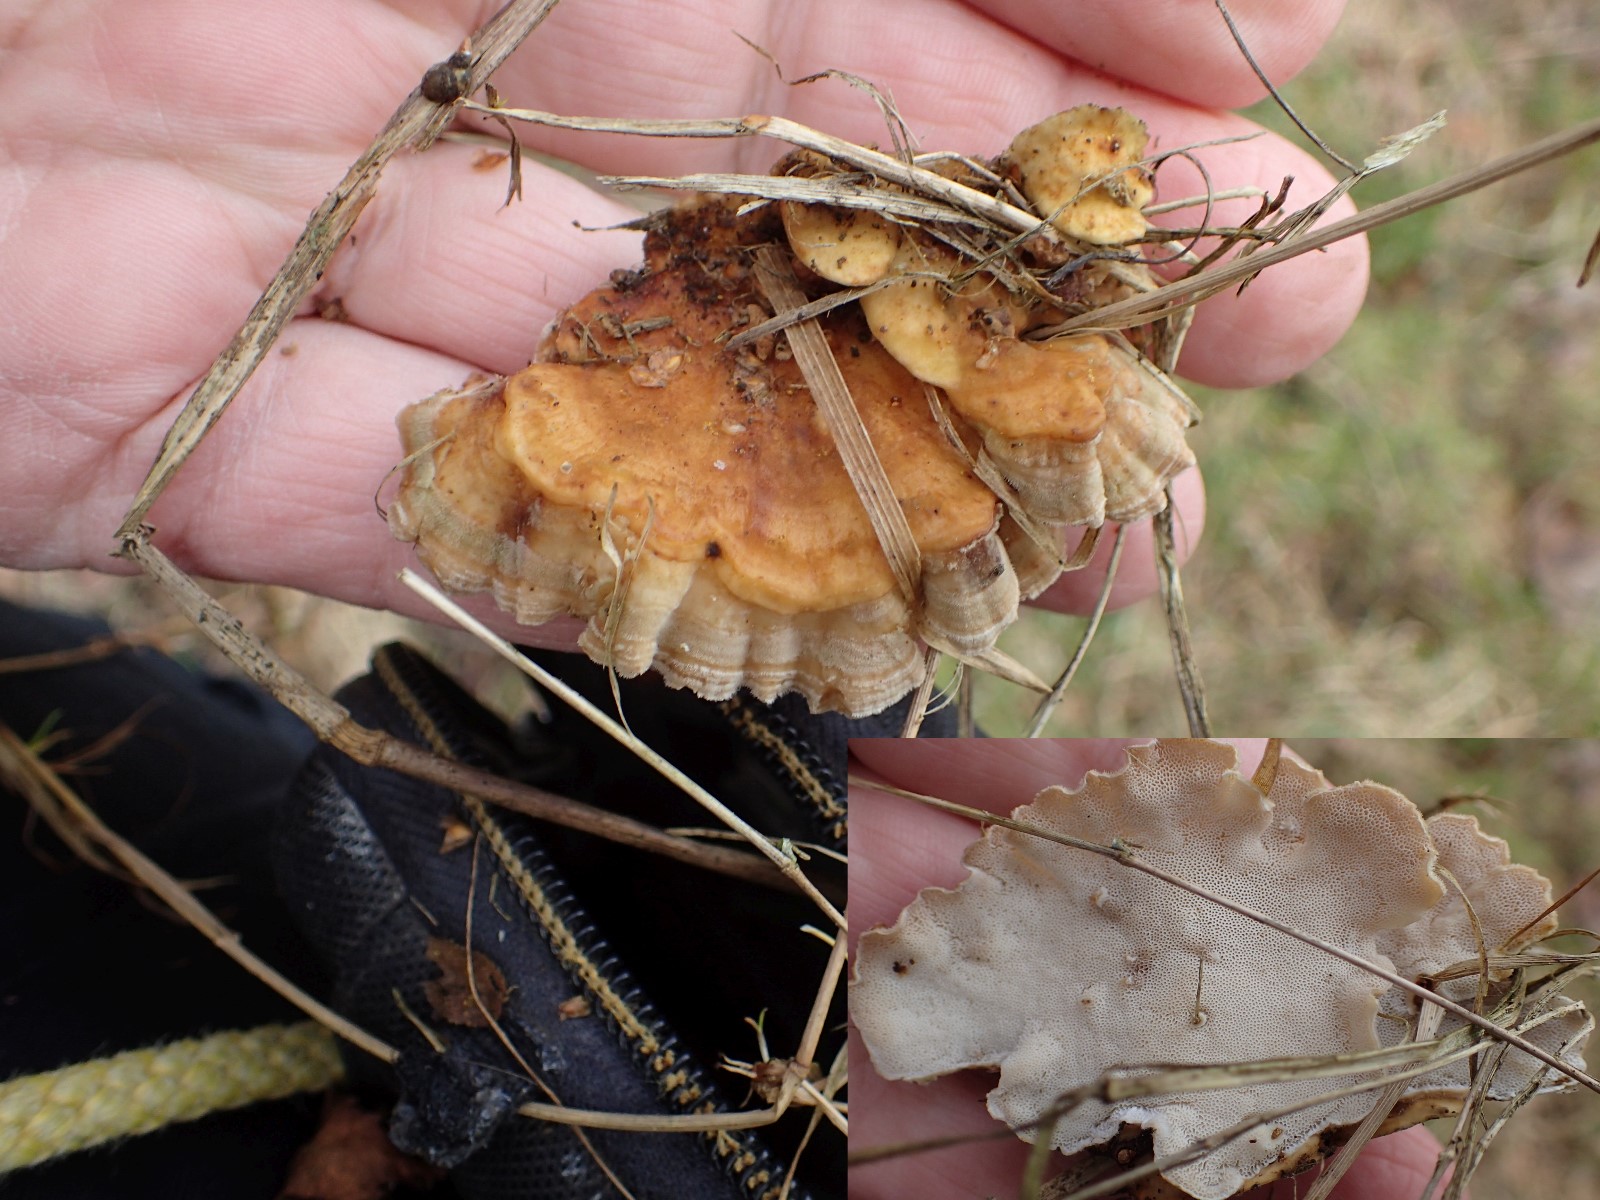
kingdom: Fungi
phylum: Basidiomycota
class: Agaricomycetes
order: Polyporales
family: Polyporaceae
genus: Trametes
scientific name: Trametes versicolor
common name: broget læderporesvamp
